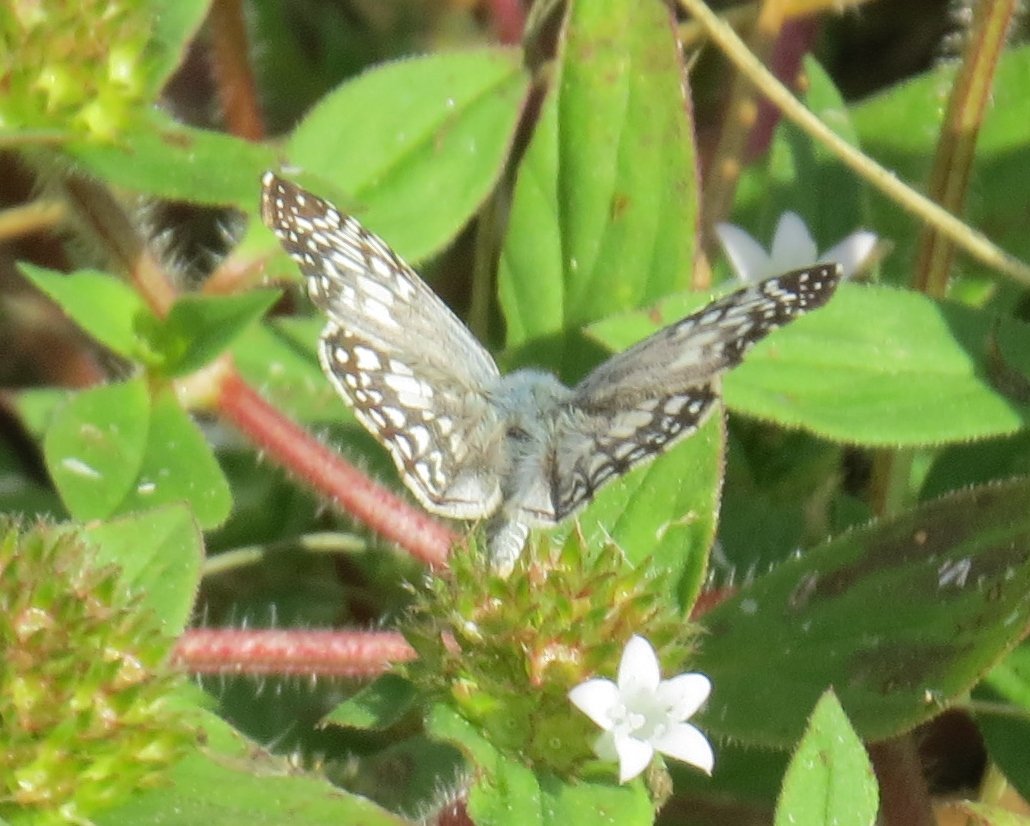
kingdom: Animalia
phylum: Arthropoda
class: Insecta
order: Lepidoptera
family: Hesperiidae
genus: Pyrgus
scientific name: Pyrgus oileus
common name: Tropical Checkered-Skipper
